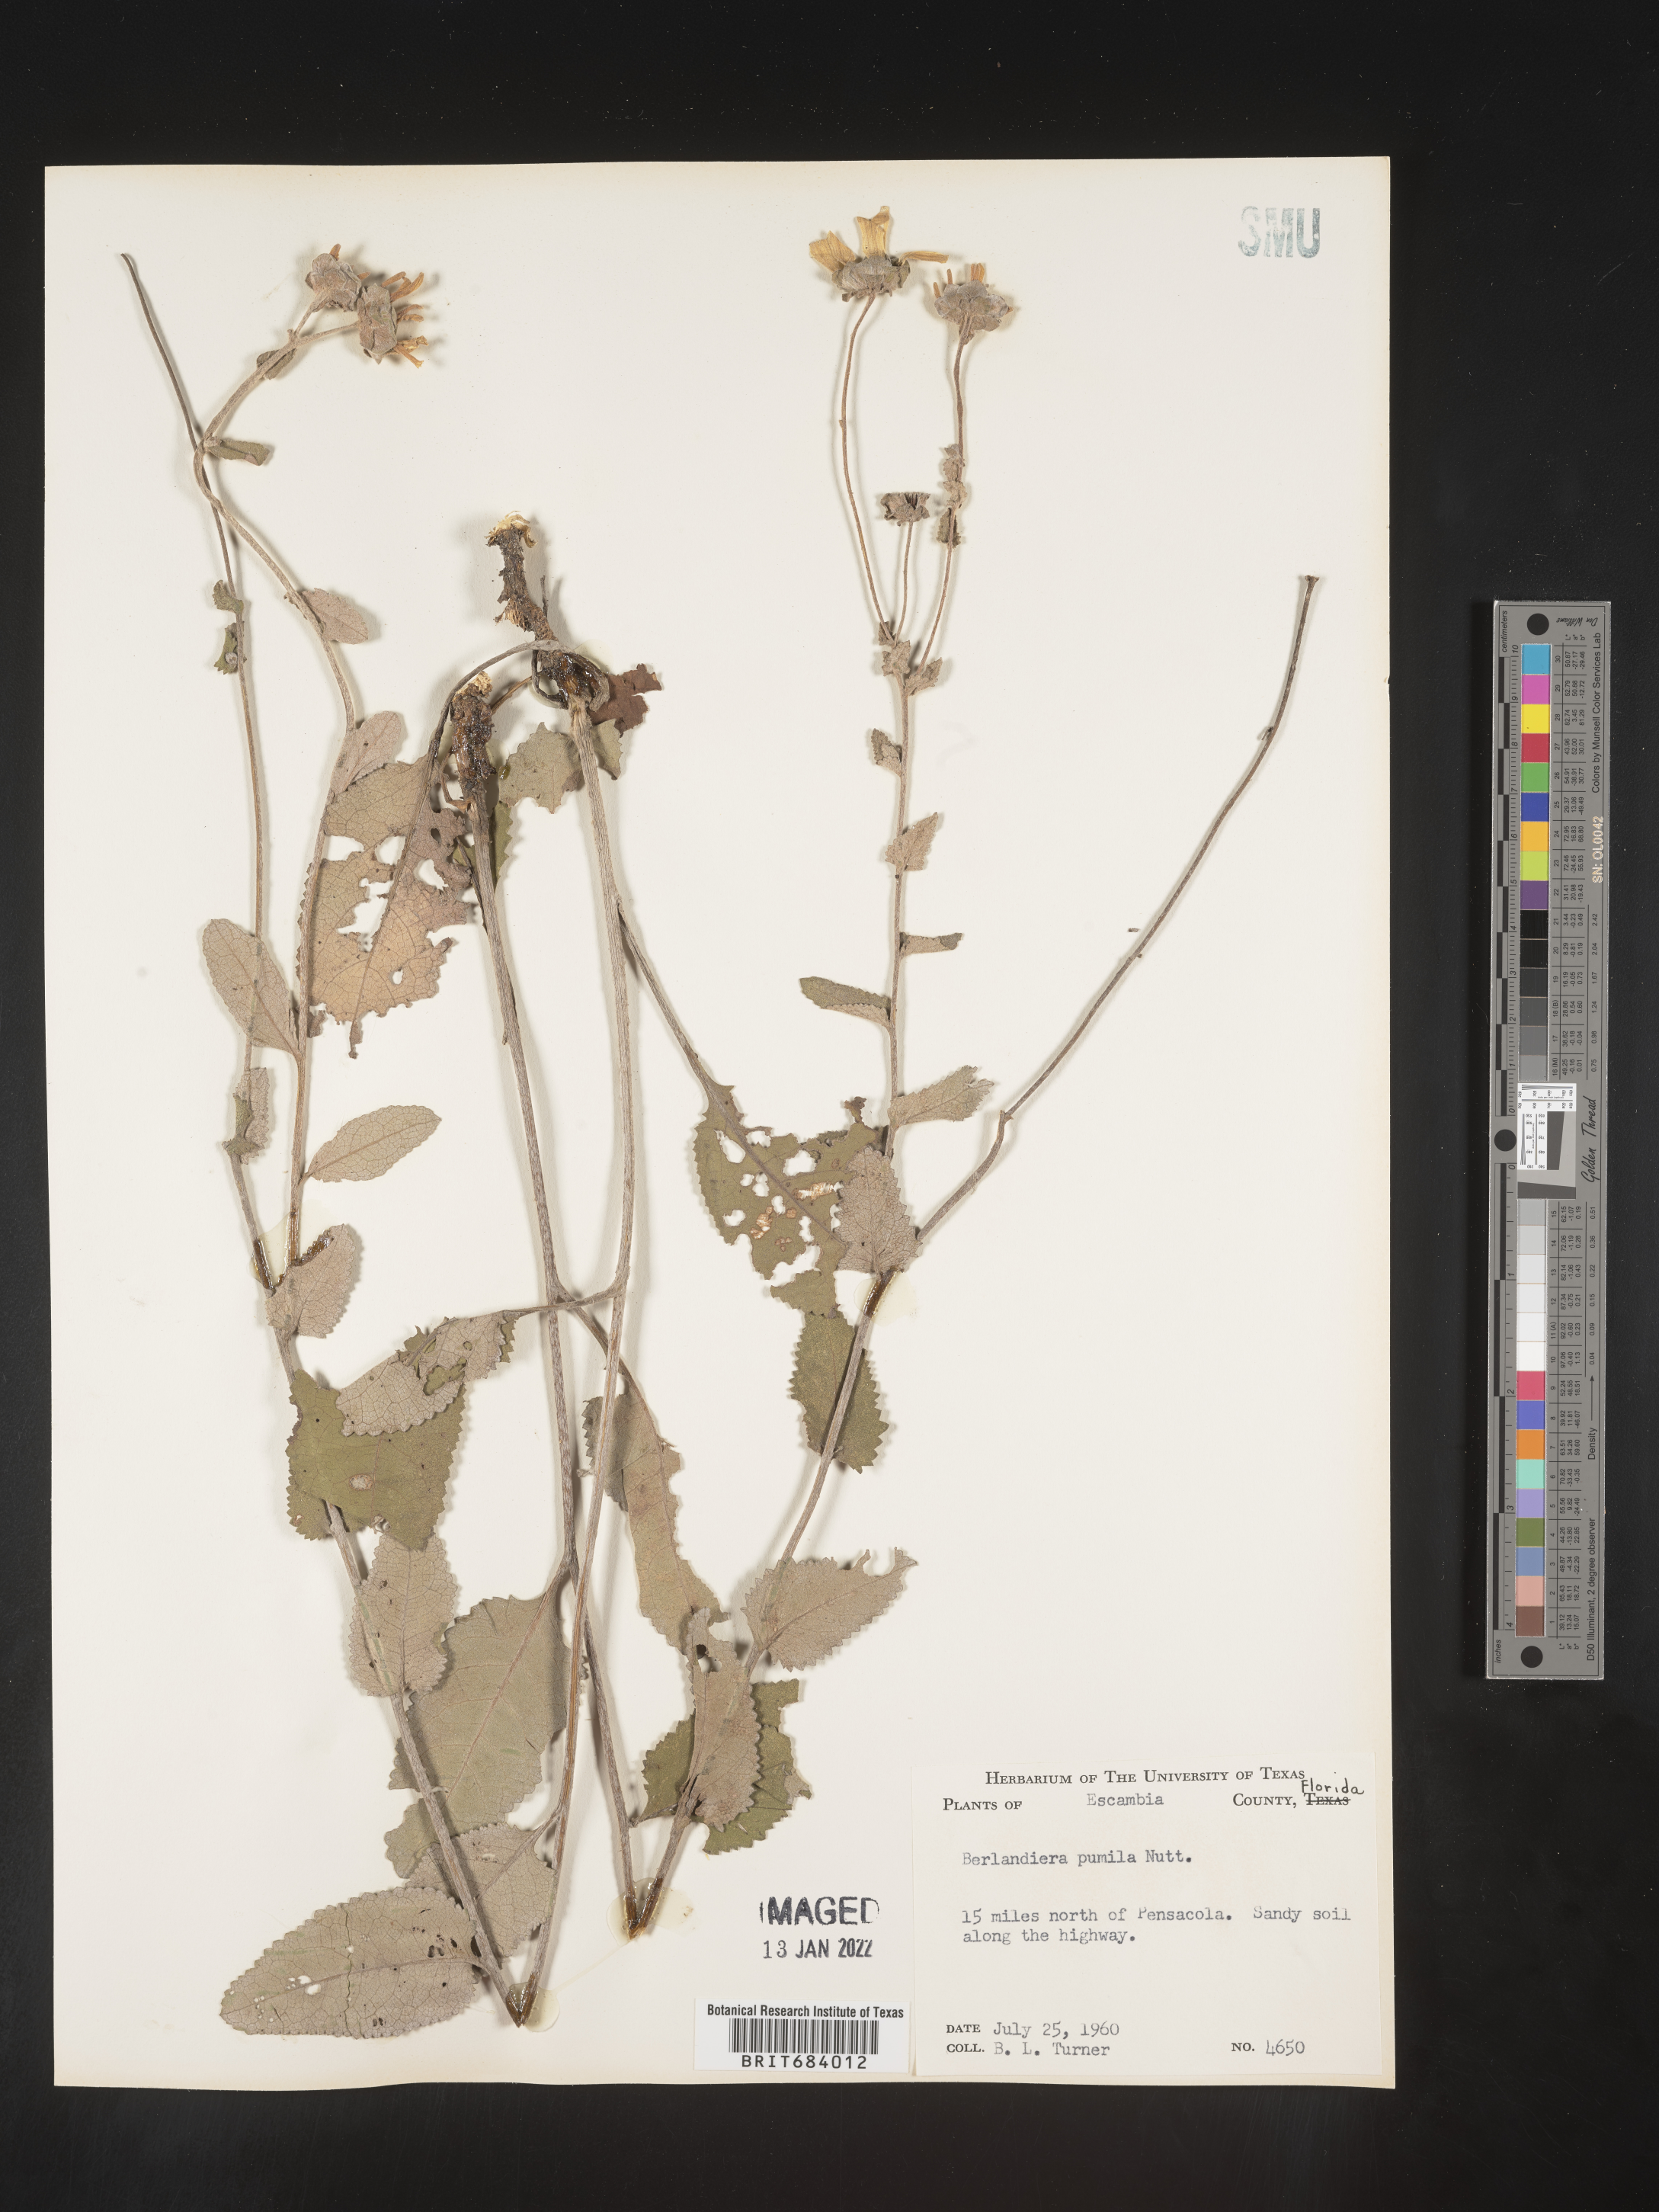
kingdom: Plantae
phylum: Tracheophyta
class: Magnoliopsida
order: Asterales
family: Asteraceae
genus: Berlandiera
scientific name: Berlandiera pumila
